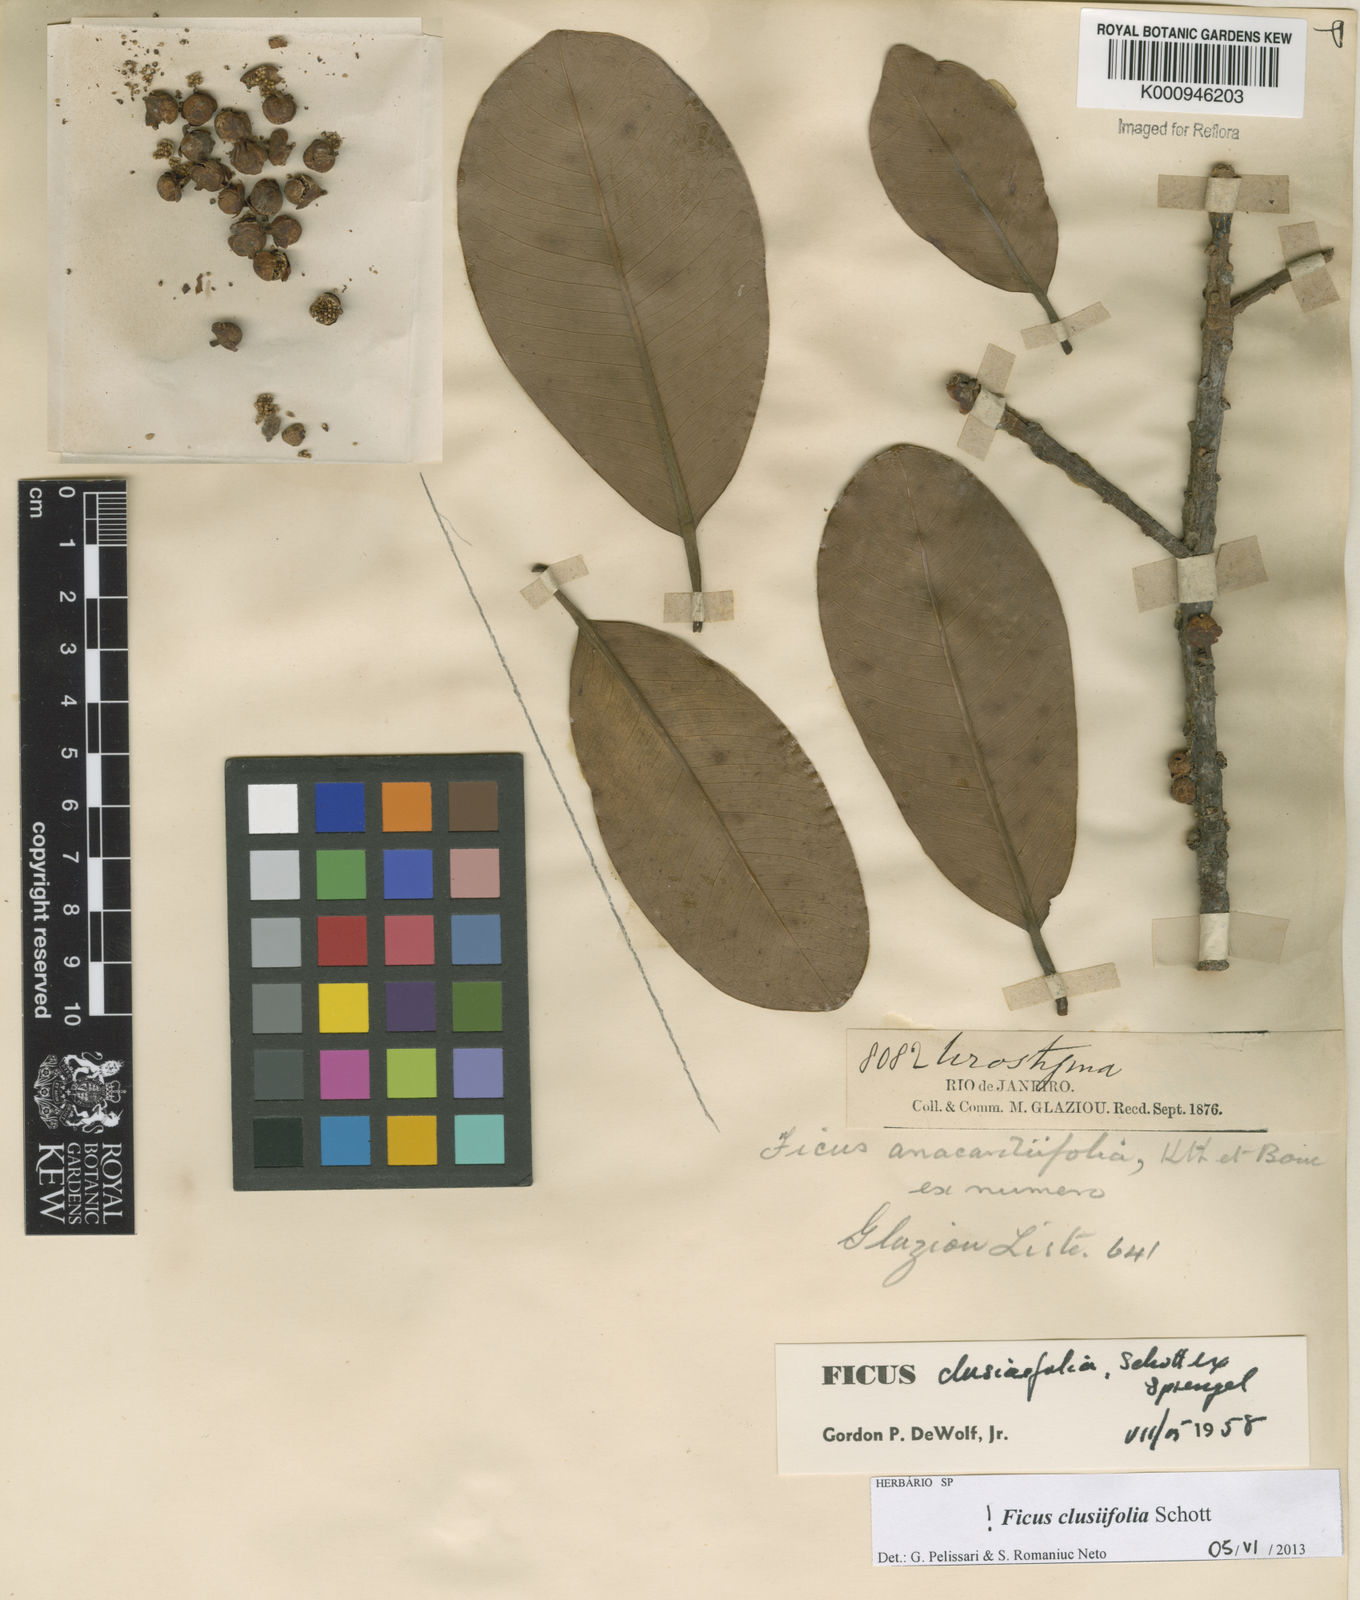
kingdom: Plantae
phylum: Tracheophyta
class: Magnoliopsida
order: Rosales
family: Moraceae
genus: Ficus
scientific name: Ficus americana
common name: Jamaican cherry fig
